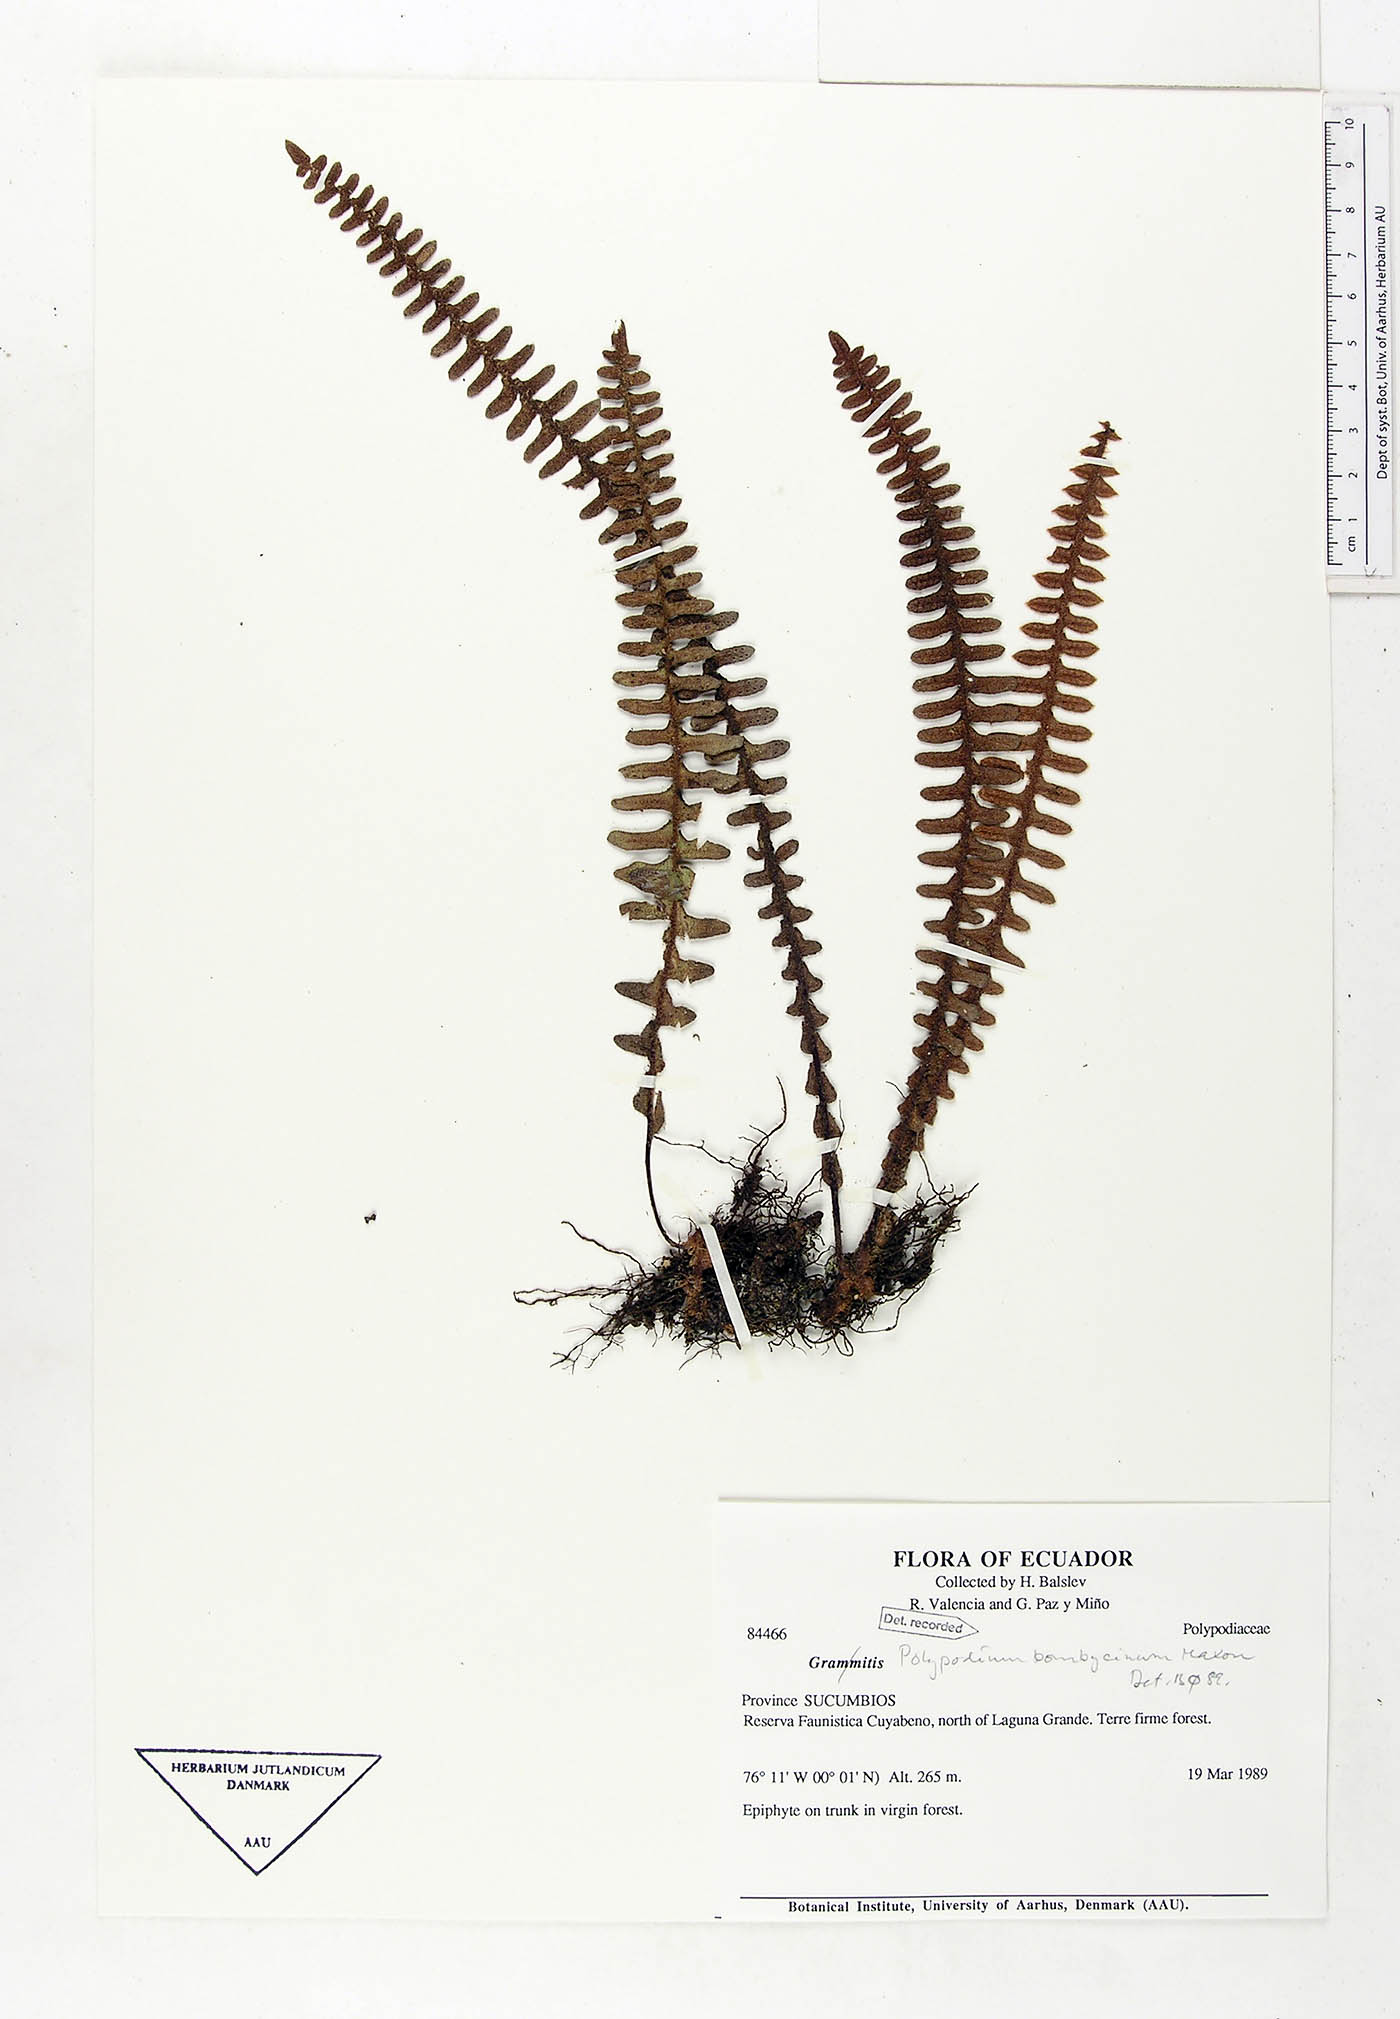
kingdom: Plantae
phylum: Tracheophyta
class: Polypodiopsida
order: Polypodiales
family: Polypodiaceae
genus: Pleopeltis
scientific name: Pleopeltis bombycina
